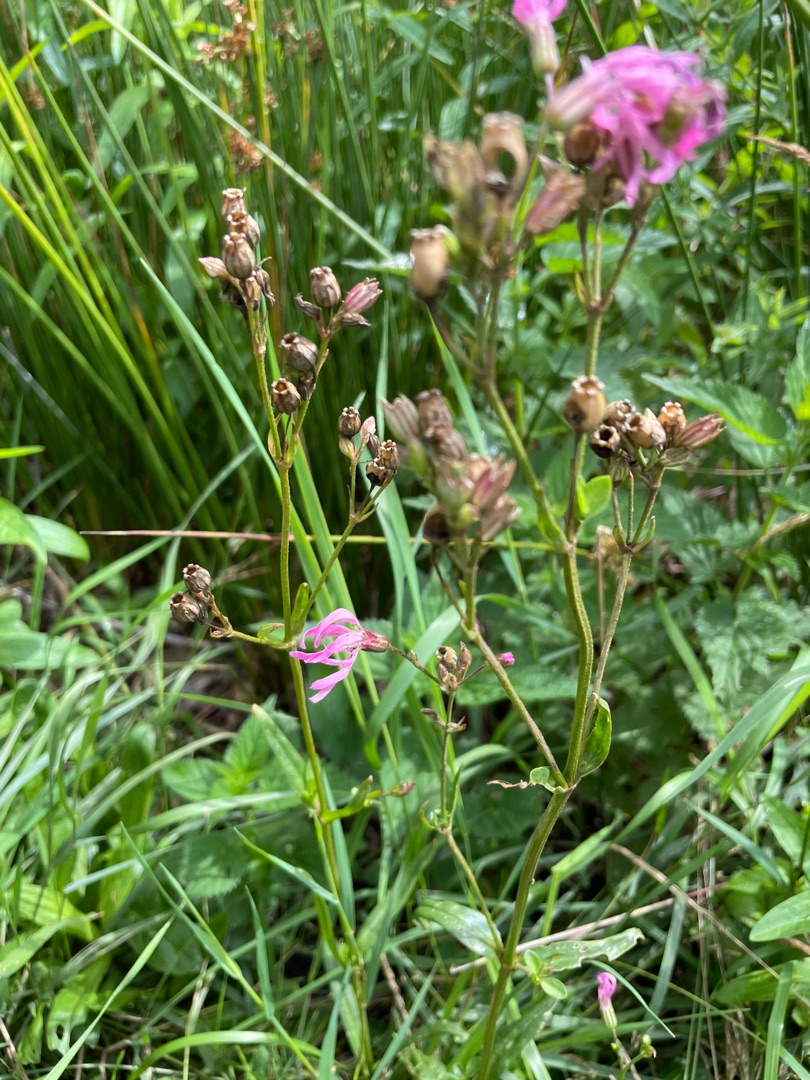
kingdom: Plantae
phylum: Tracheophyta
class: Magnoliopsida
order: Caryophyllales
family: Caryophyllaceae
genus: Silene
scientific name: Silene flos-cuculi
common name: Trævlekrone
